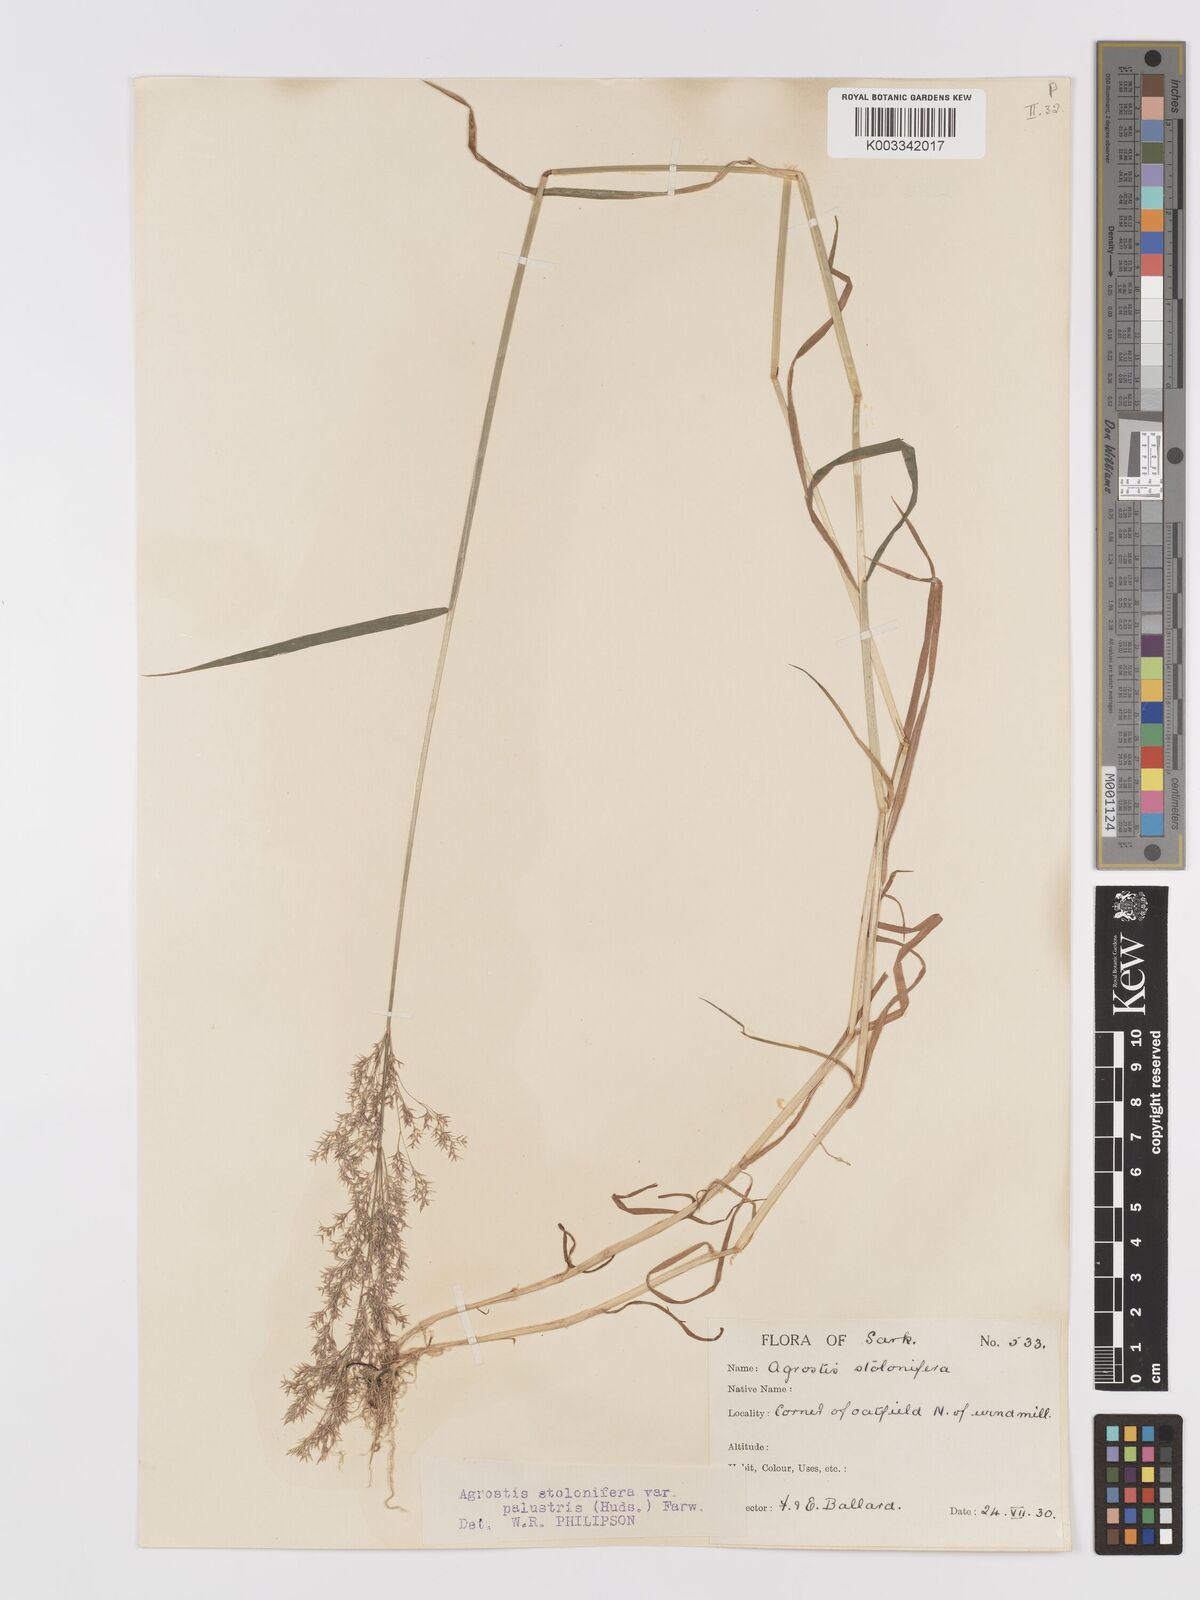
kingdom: Plantae
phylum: Tracheophyta
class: Liliopsida
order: Poales
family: Poaceae
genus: Agrostis
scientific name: Agrostis stolonifera
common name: Creeping bentgrass
